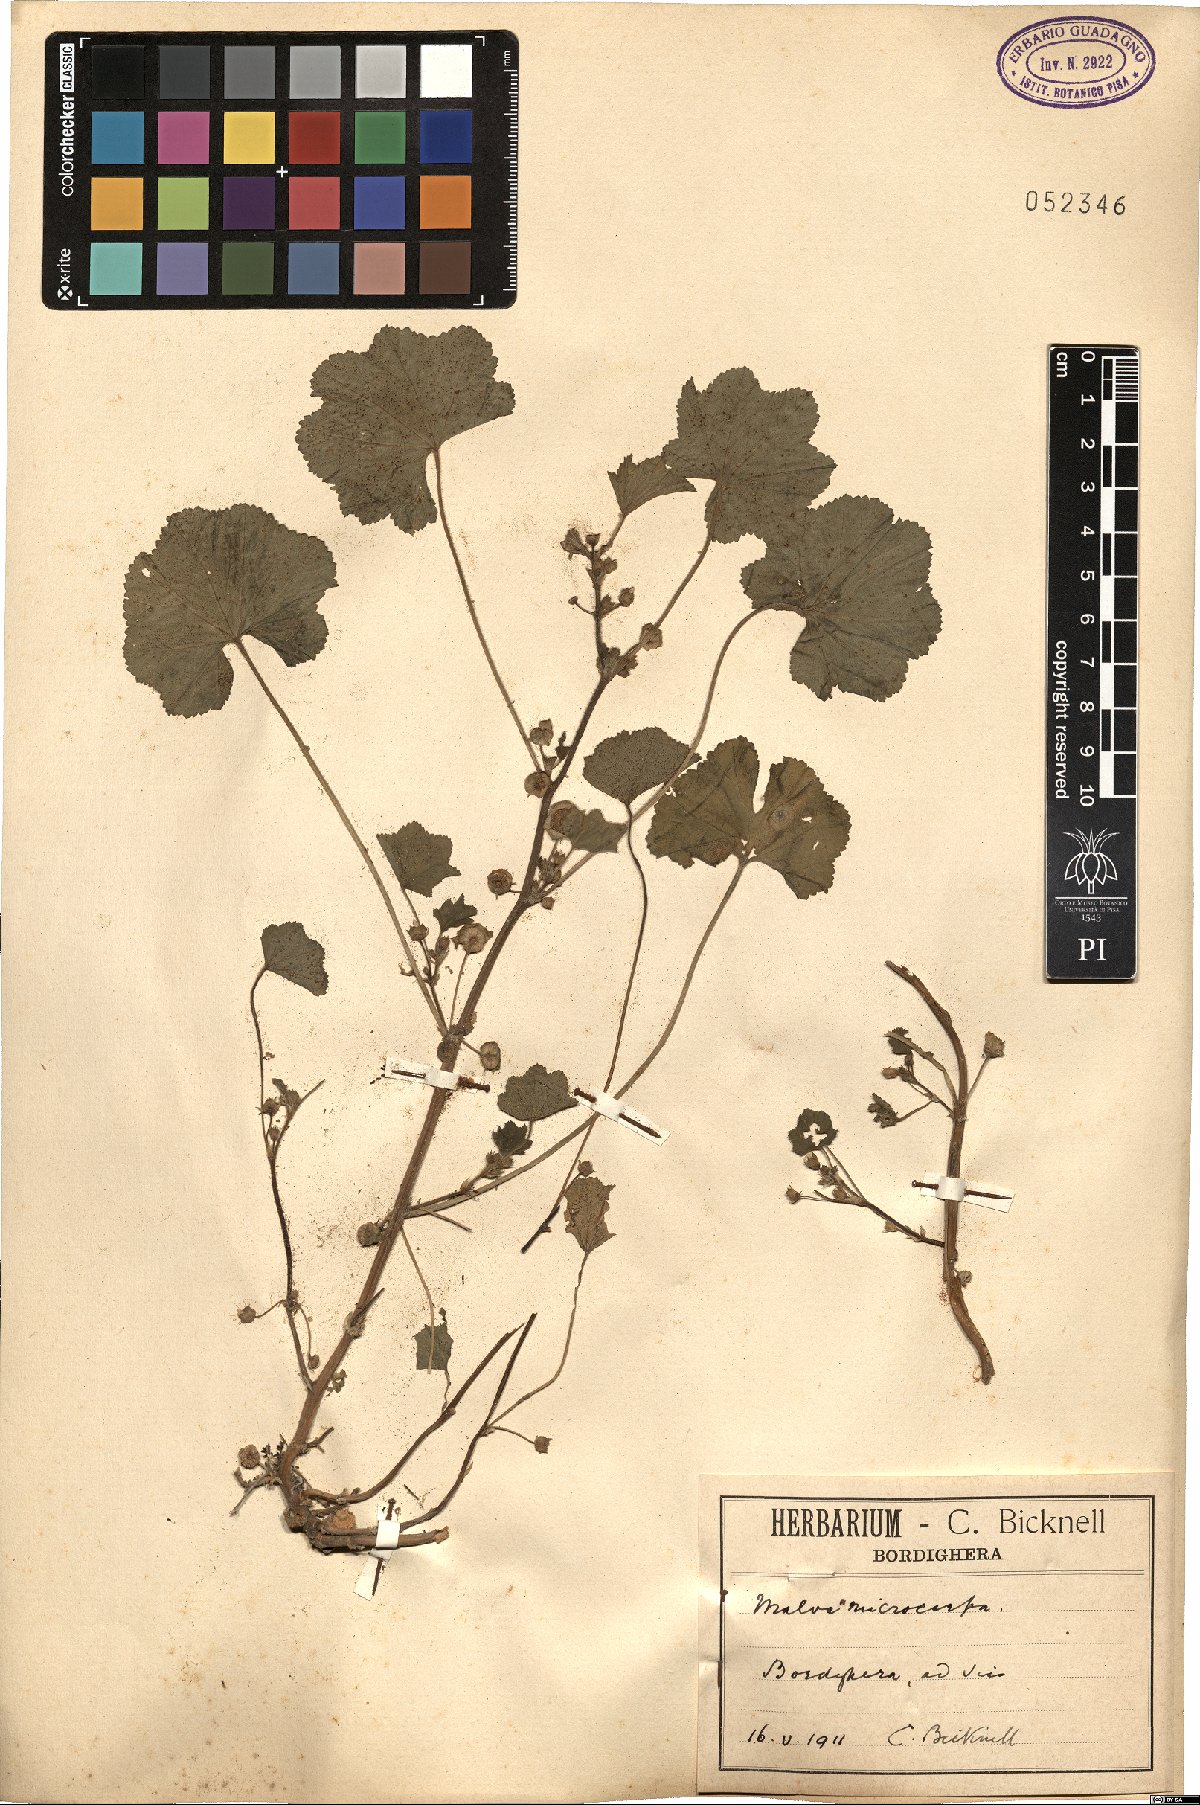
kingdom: Plantae
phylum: Tracheophyta
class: Magnoliopsida
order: Malvales
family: Malvaceae
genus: Malva
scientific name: Malva parviflora
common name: Least mallow
